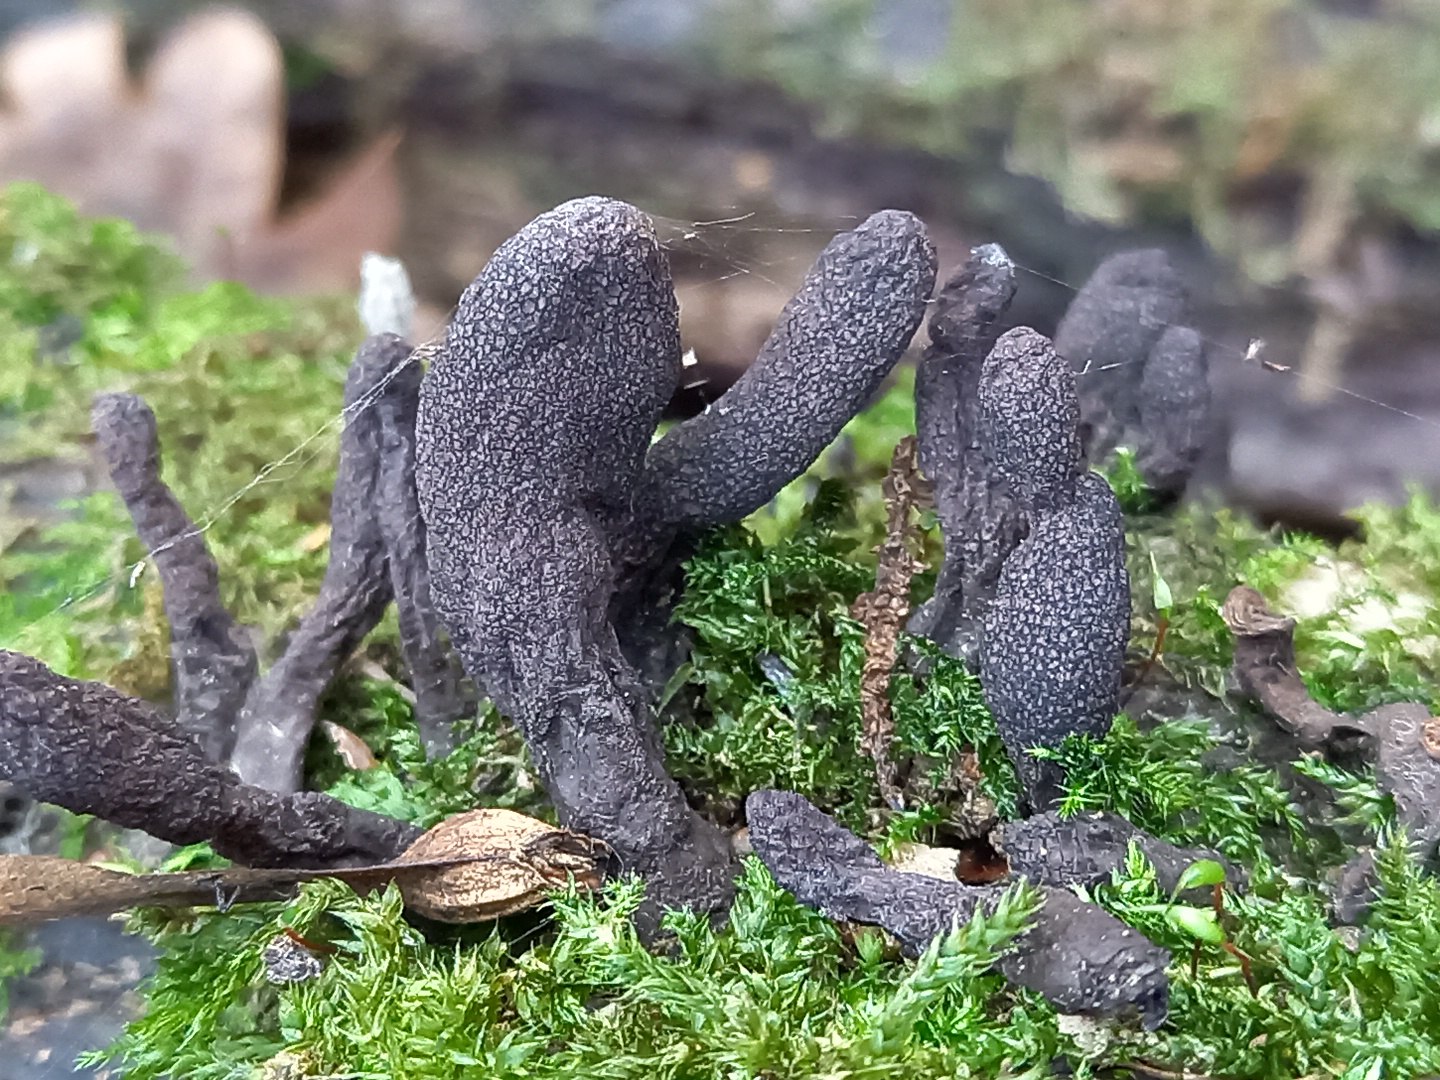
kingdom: Fungi
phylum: Ascomycota
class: Sordariomycetes
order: Xylariales
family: Xylariaceae
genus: Xylaria
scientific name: Xylaria longipes
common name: slank stødsvamp
